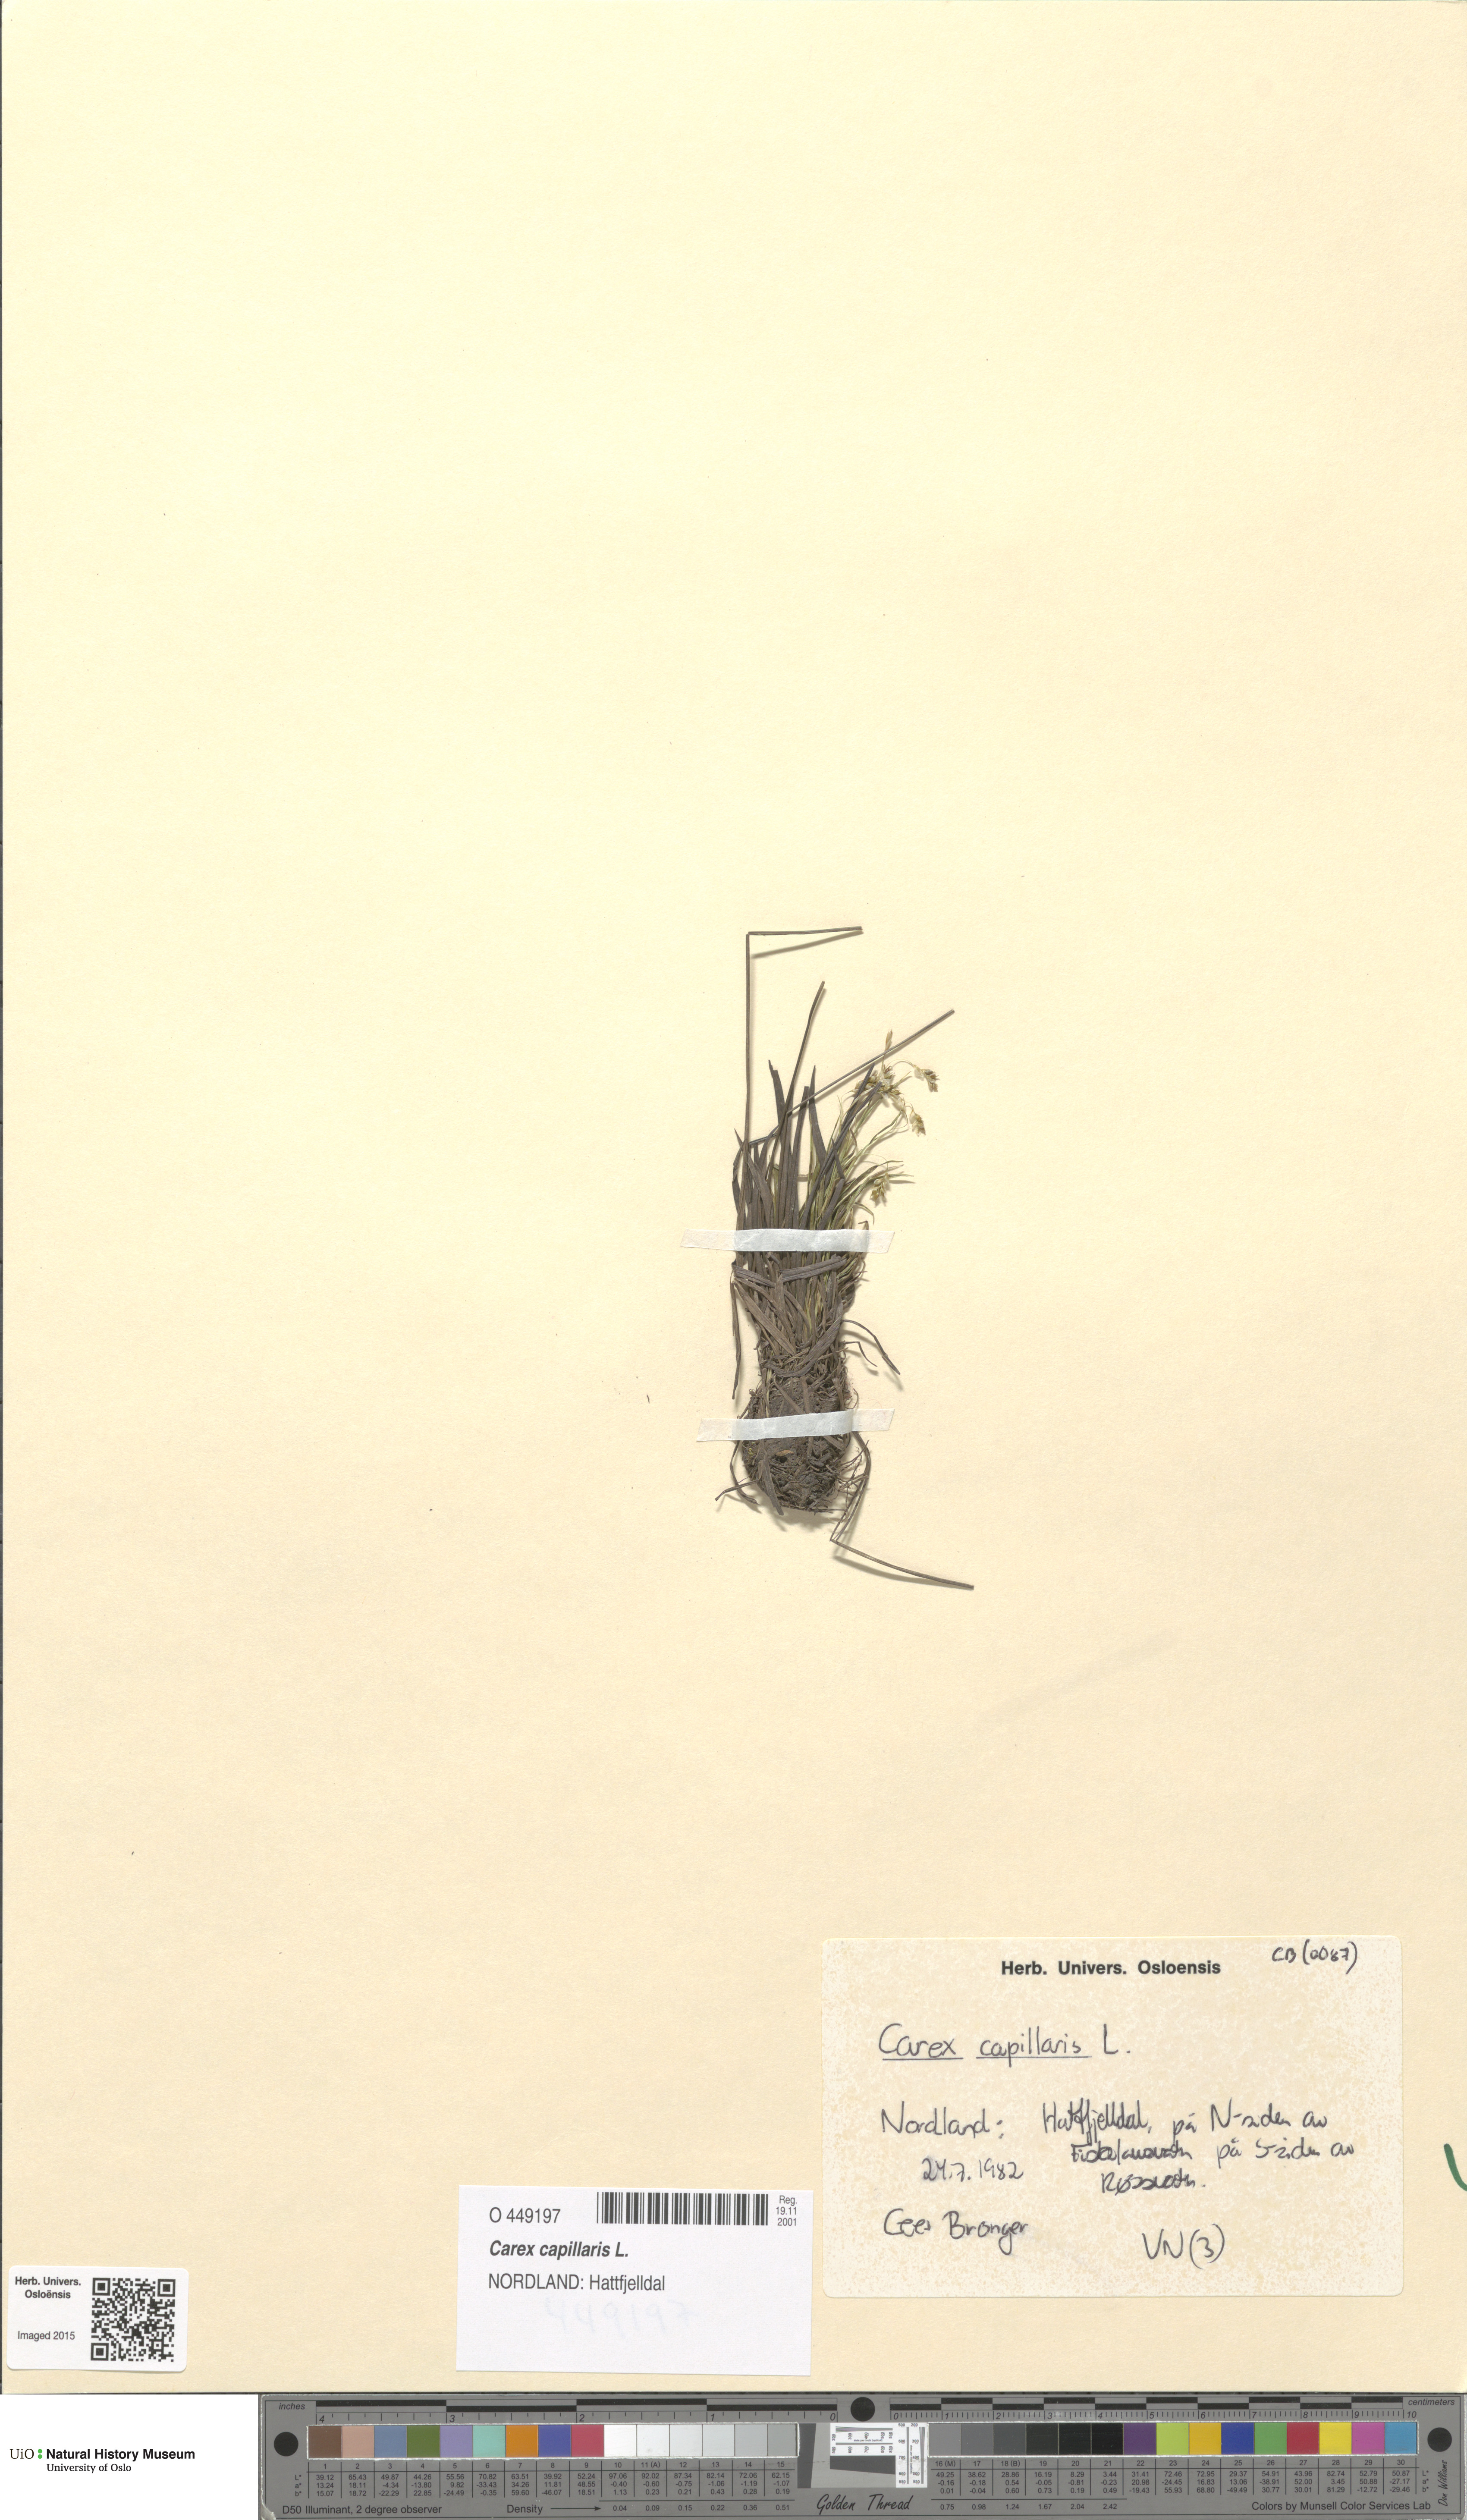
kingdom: Plantae
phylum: Tracheophyta
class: Liliopsida
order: Poales
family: Cyperaceae
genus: Carex
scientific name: Carex capillaris
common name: Hair sedge
